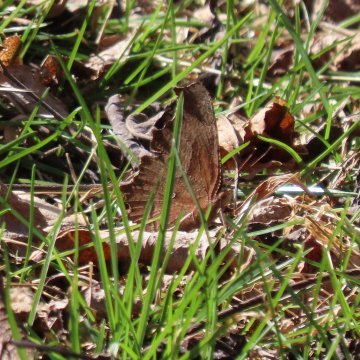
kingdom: Animalia
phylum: Arthropoda
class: Insecta
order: Lepidoptera
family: Nymphalidae
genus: Polygonia
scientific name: Polygonia comma
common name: Eastern Comma
